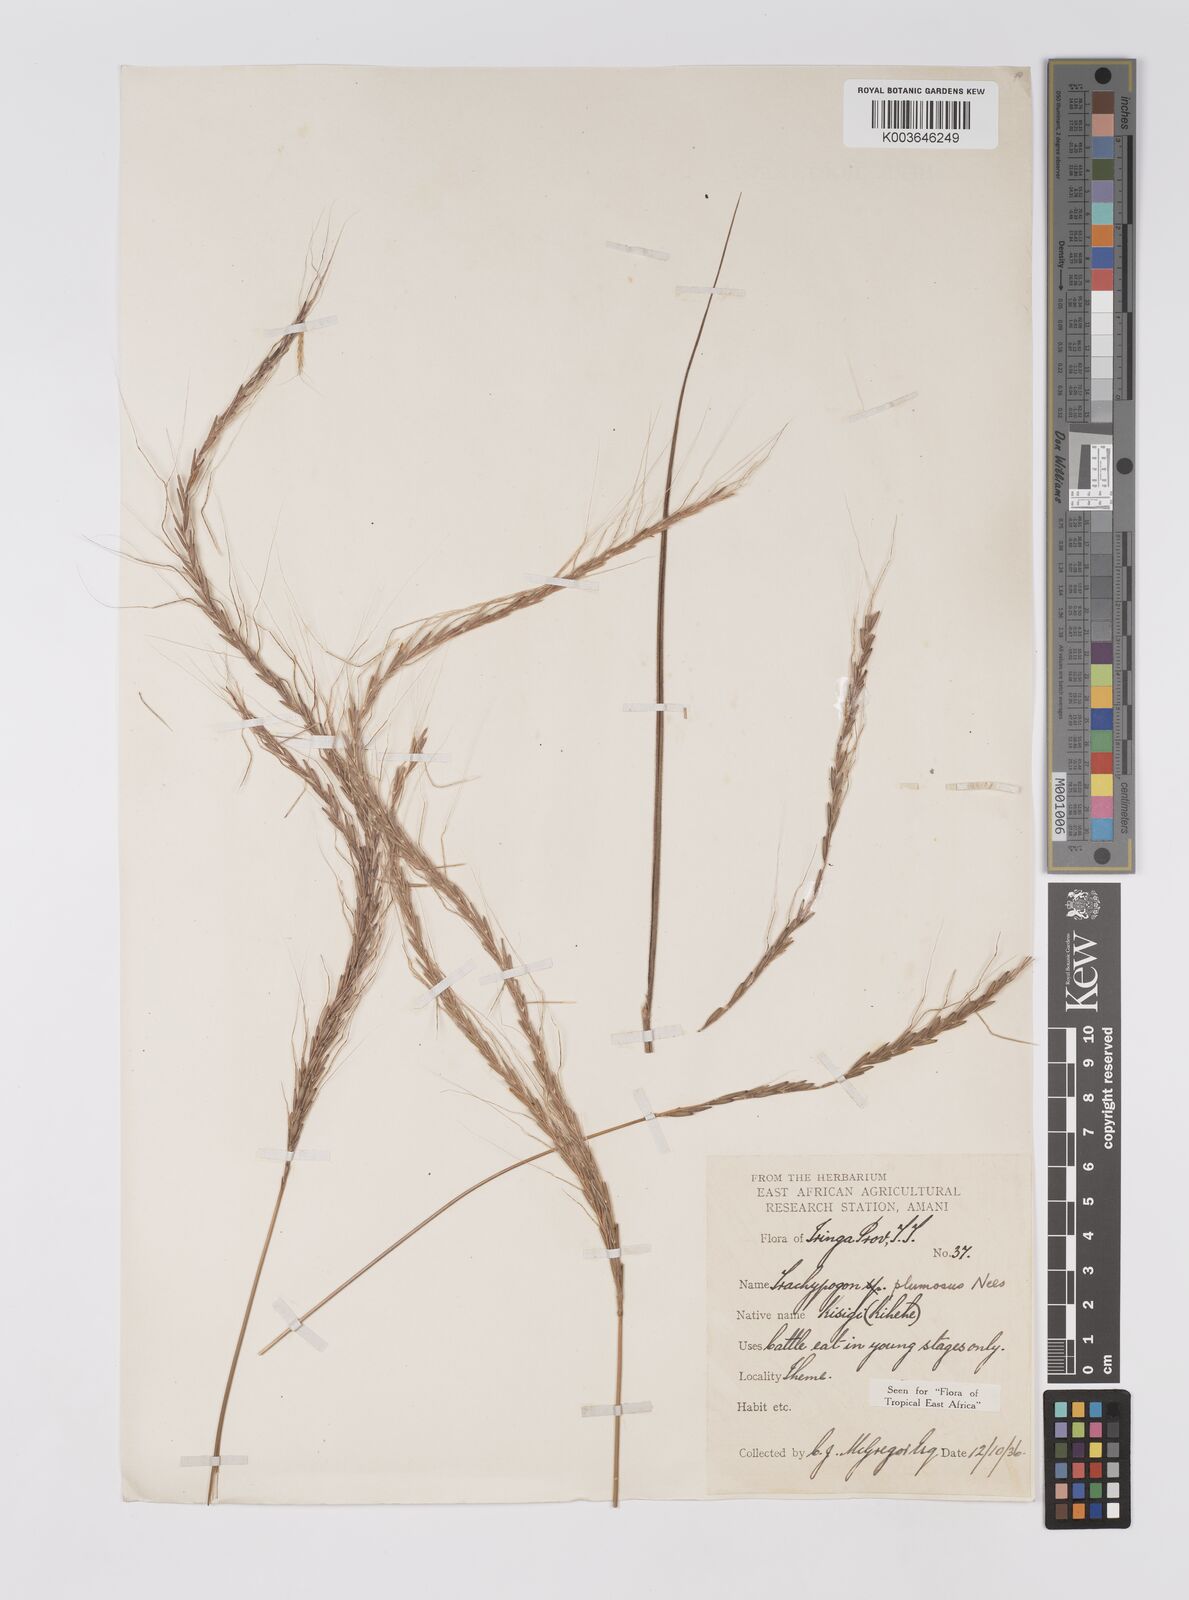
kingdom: Plantae
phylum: Tracheophyta
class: Liliopsida
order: Poales
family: Poaceae
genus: Trachypogon
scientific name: Trachypogon spicatus
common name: Crinkle-awn
